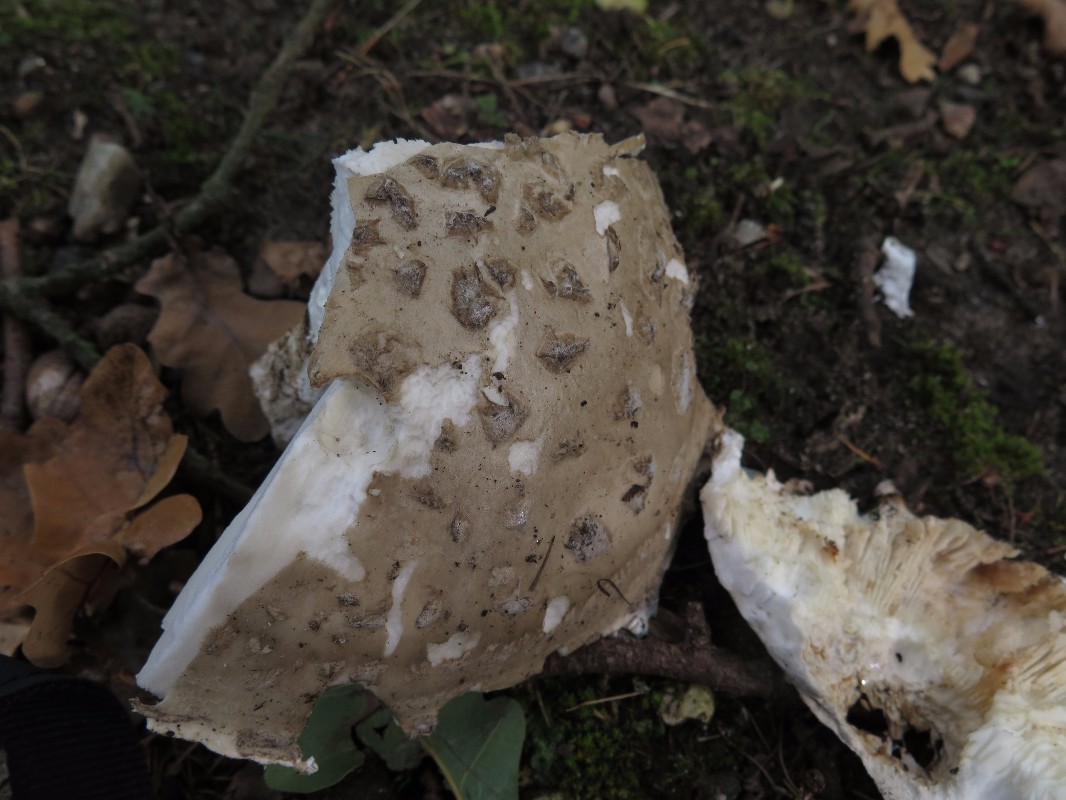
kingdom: Fungi
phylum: Basidiomycota
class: Agaricomycetes
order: Agaricales
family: Amanitaceae
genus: Amanita
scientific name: Amanita
